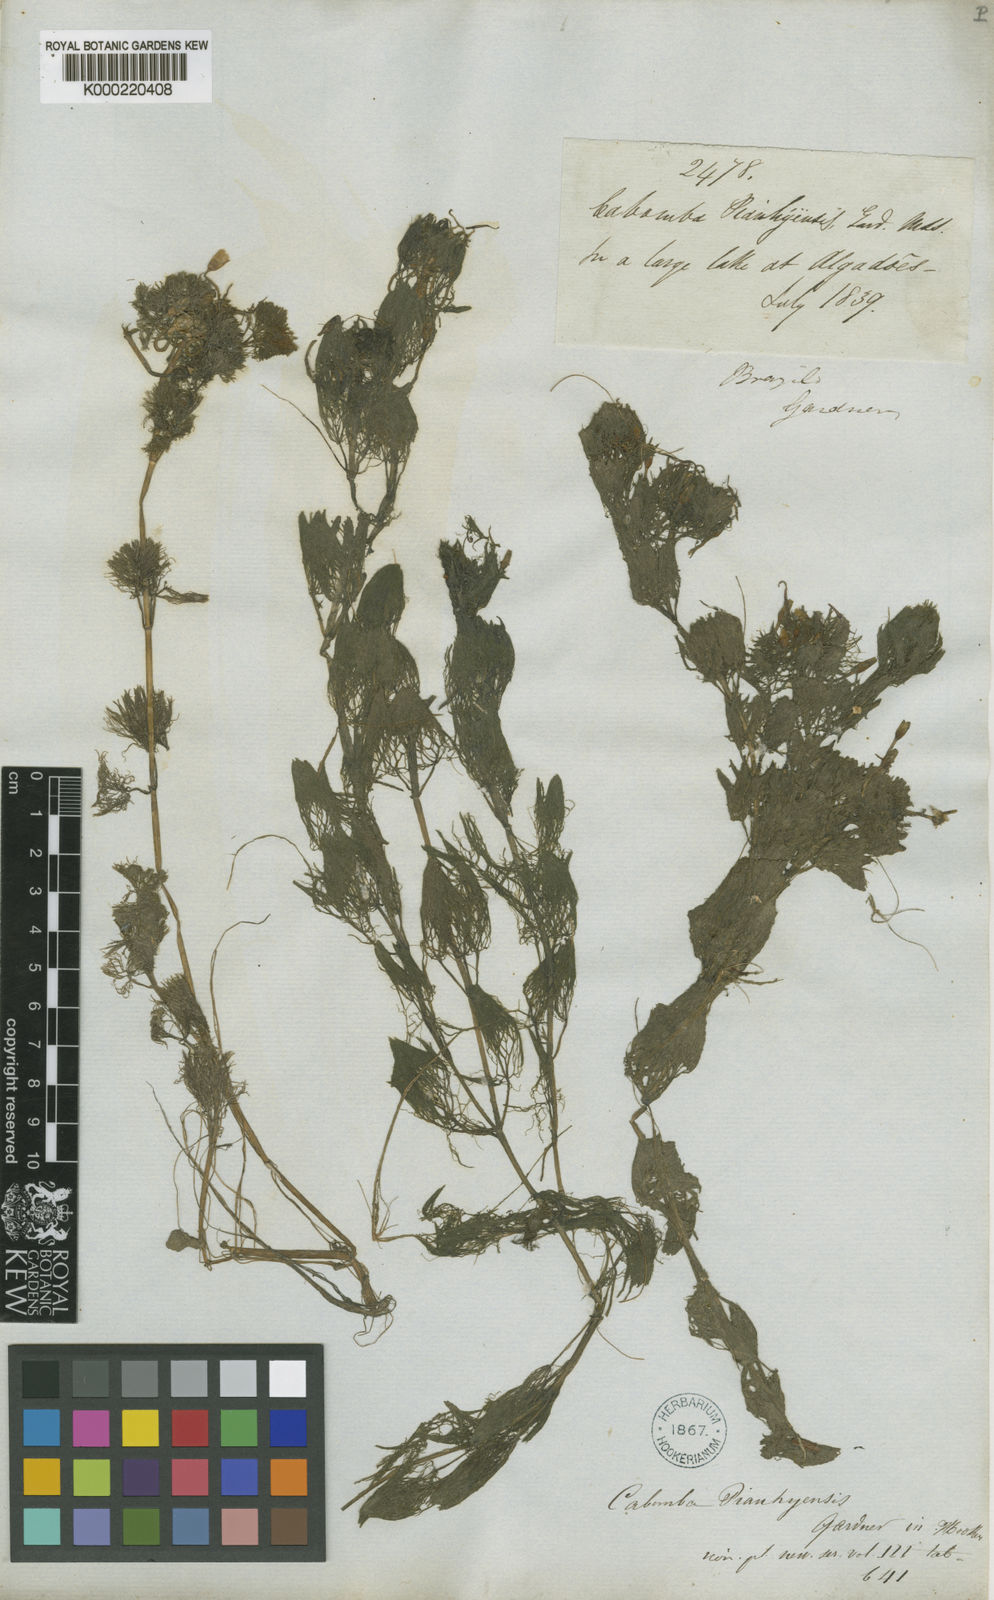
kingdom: Plantae
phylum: Tracheophyta
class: Magnoliopsida
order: Nymphaeales
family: Cabombaceae
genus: Cabomba
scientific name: Cabomba aquatica
